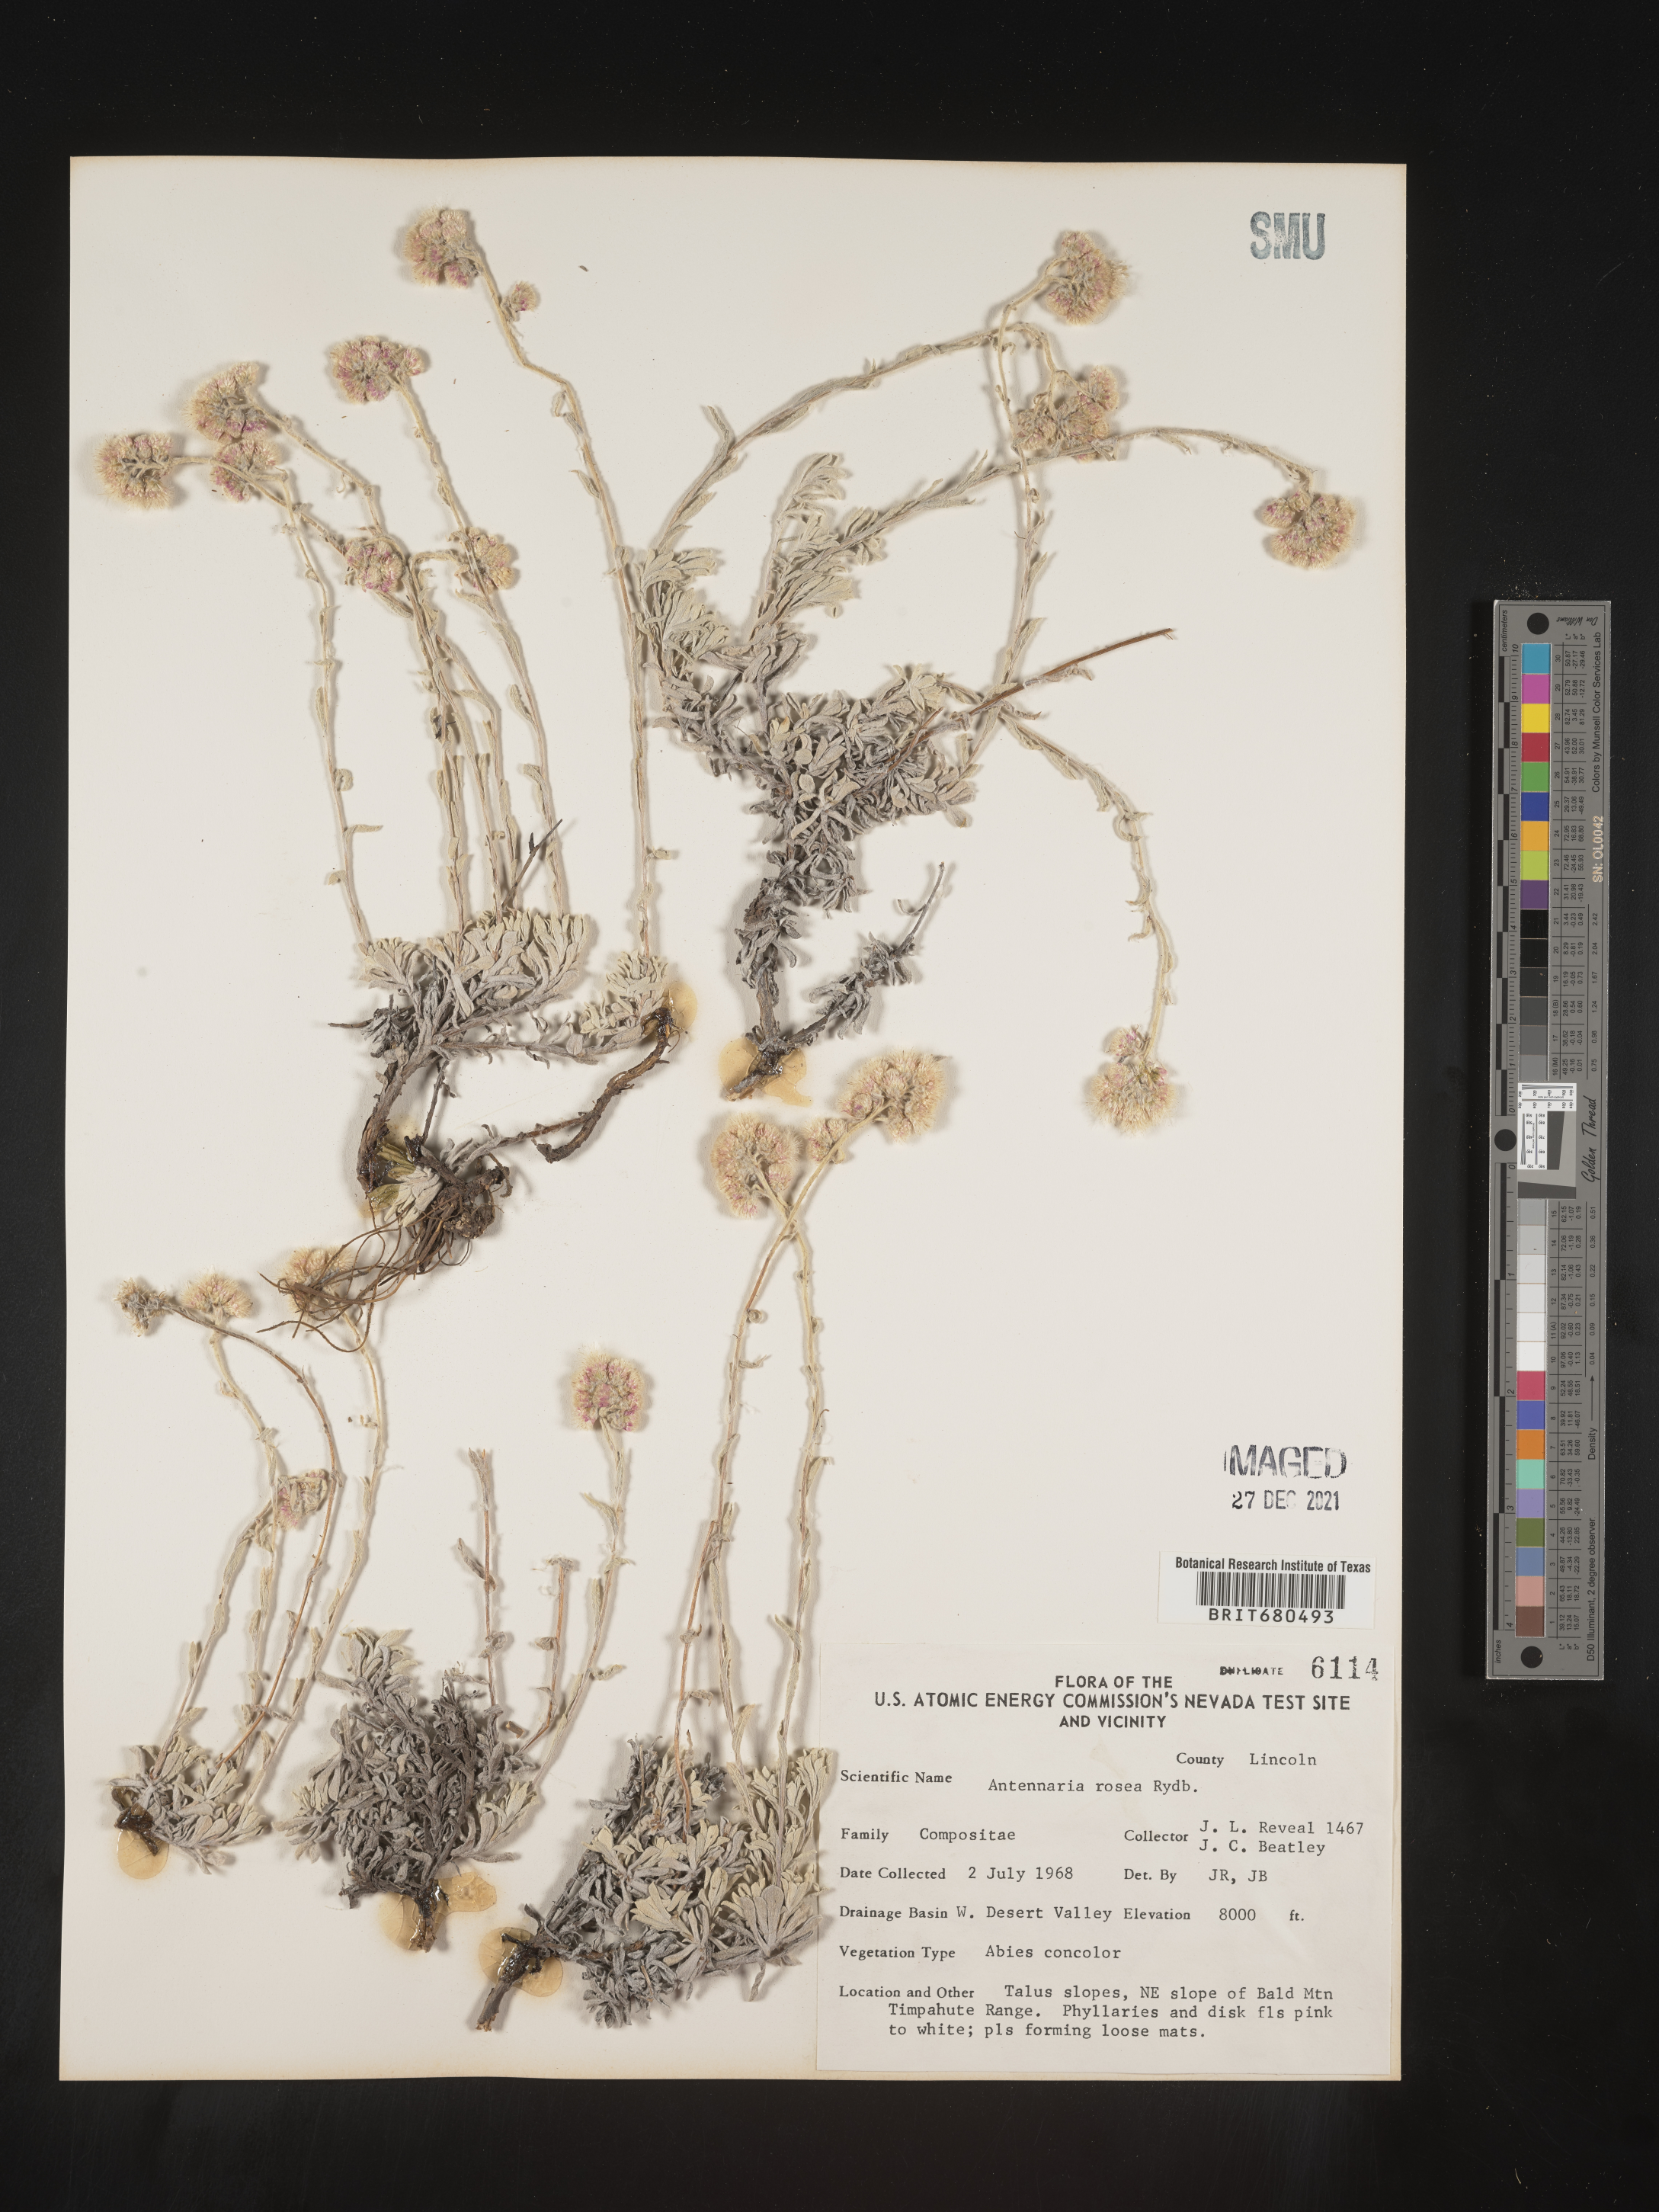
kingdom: Plantae
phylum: Tracheophyta
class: Magnoliopsida
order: Asterales
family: Asteraceae
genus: Antennaria
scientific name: Antennaria rosea
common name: Rosy pussytoes
